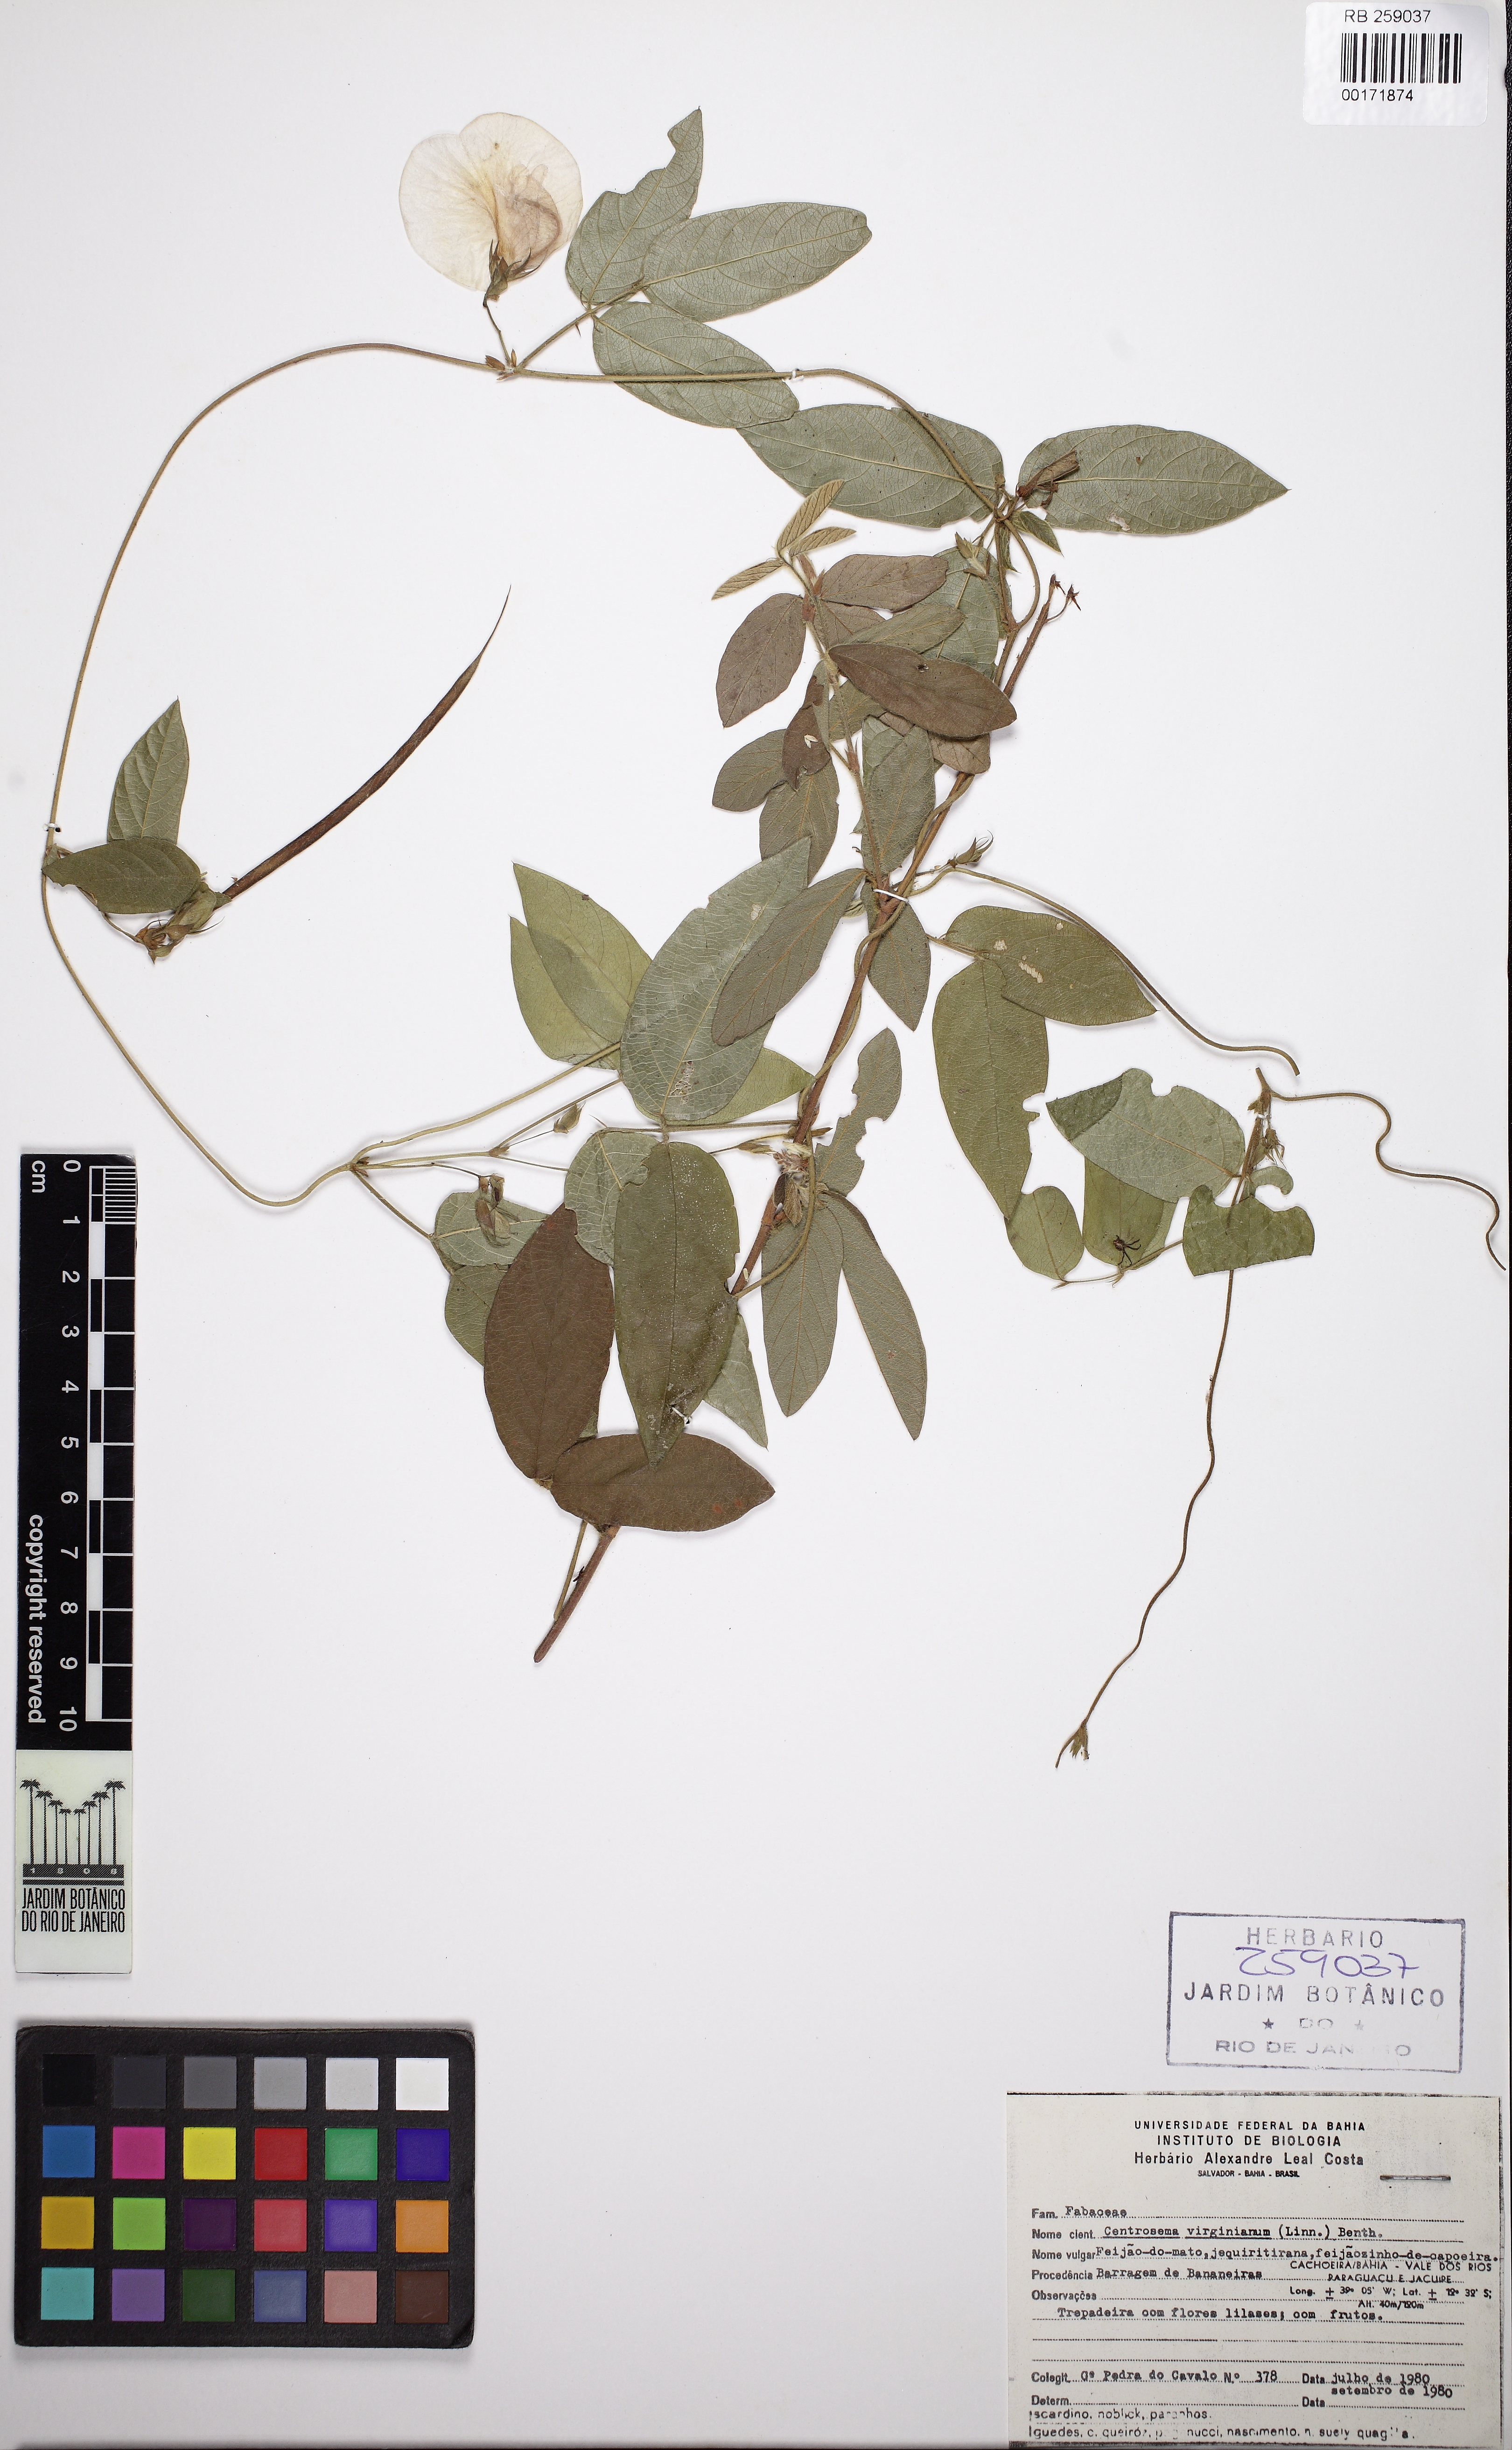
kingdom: Plantae
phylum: Tracheophyta
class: Magnoliopsida
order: Fabales
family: Fabaceae
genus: Centrosema
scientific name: Centrosema virginianum
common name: Butterfly-pea
